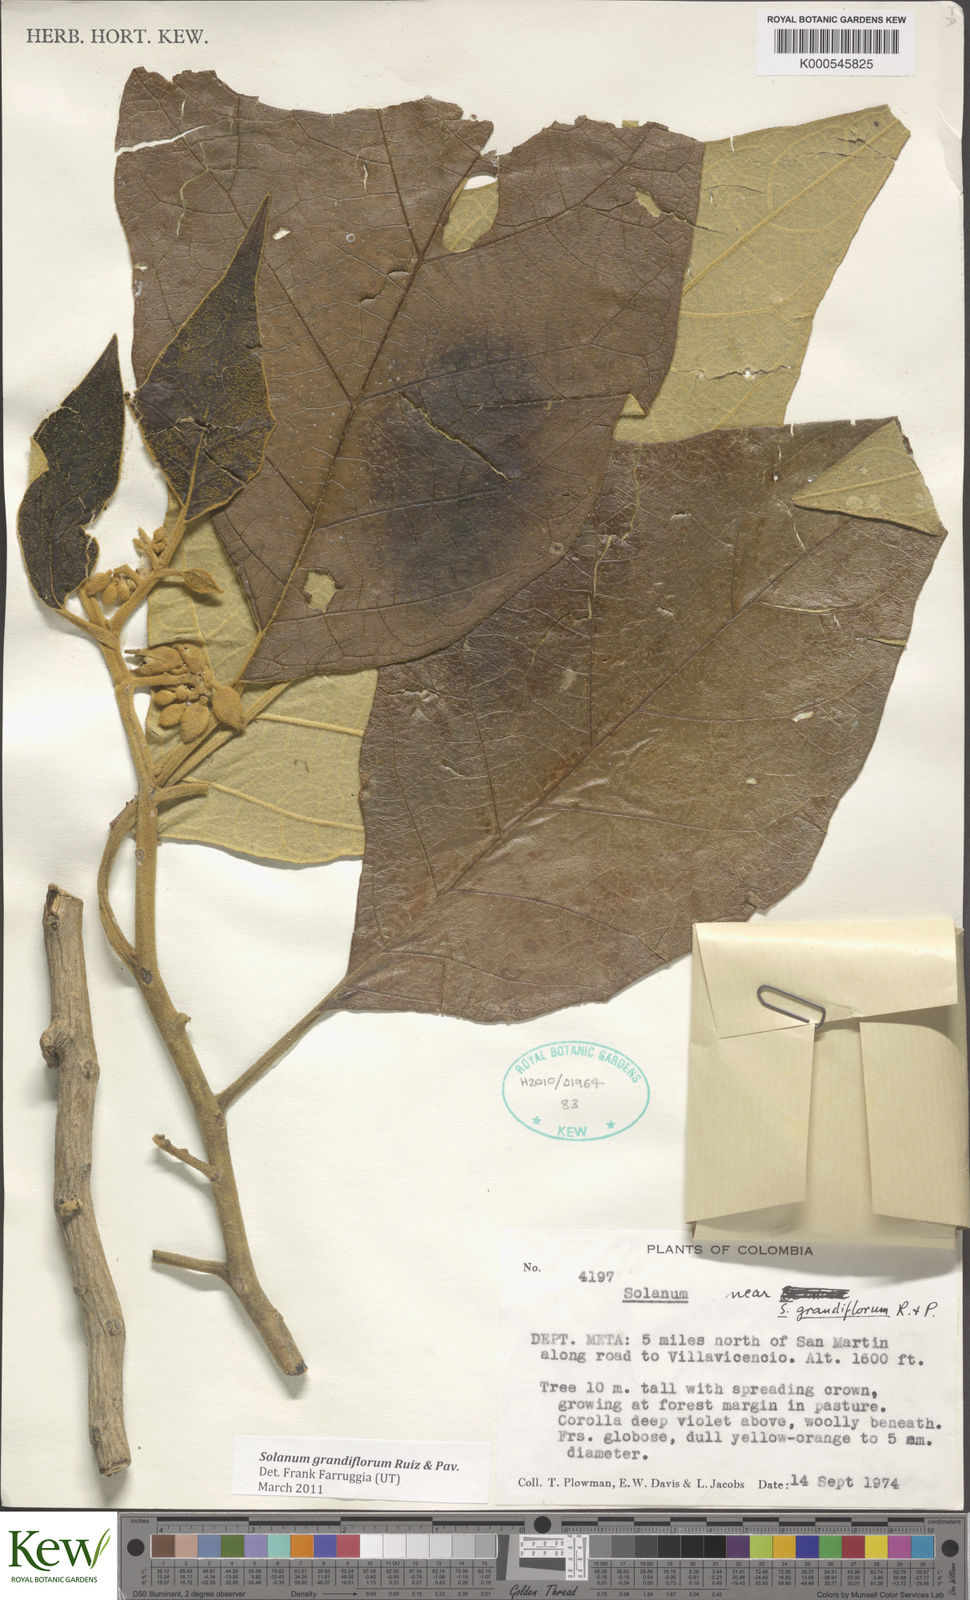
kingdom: Plantae
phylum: Tracheophyta
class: Magnoliopsida
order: Solanales
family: Solanaceae
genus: Solanum
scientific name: Solanum grandiflorum
